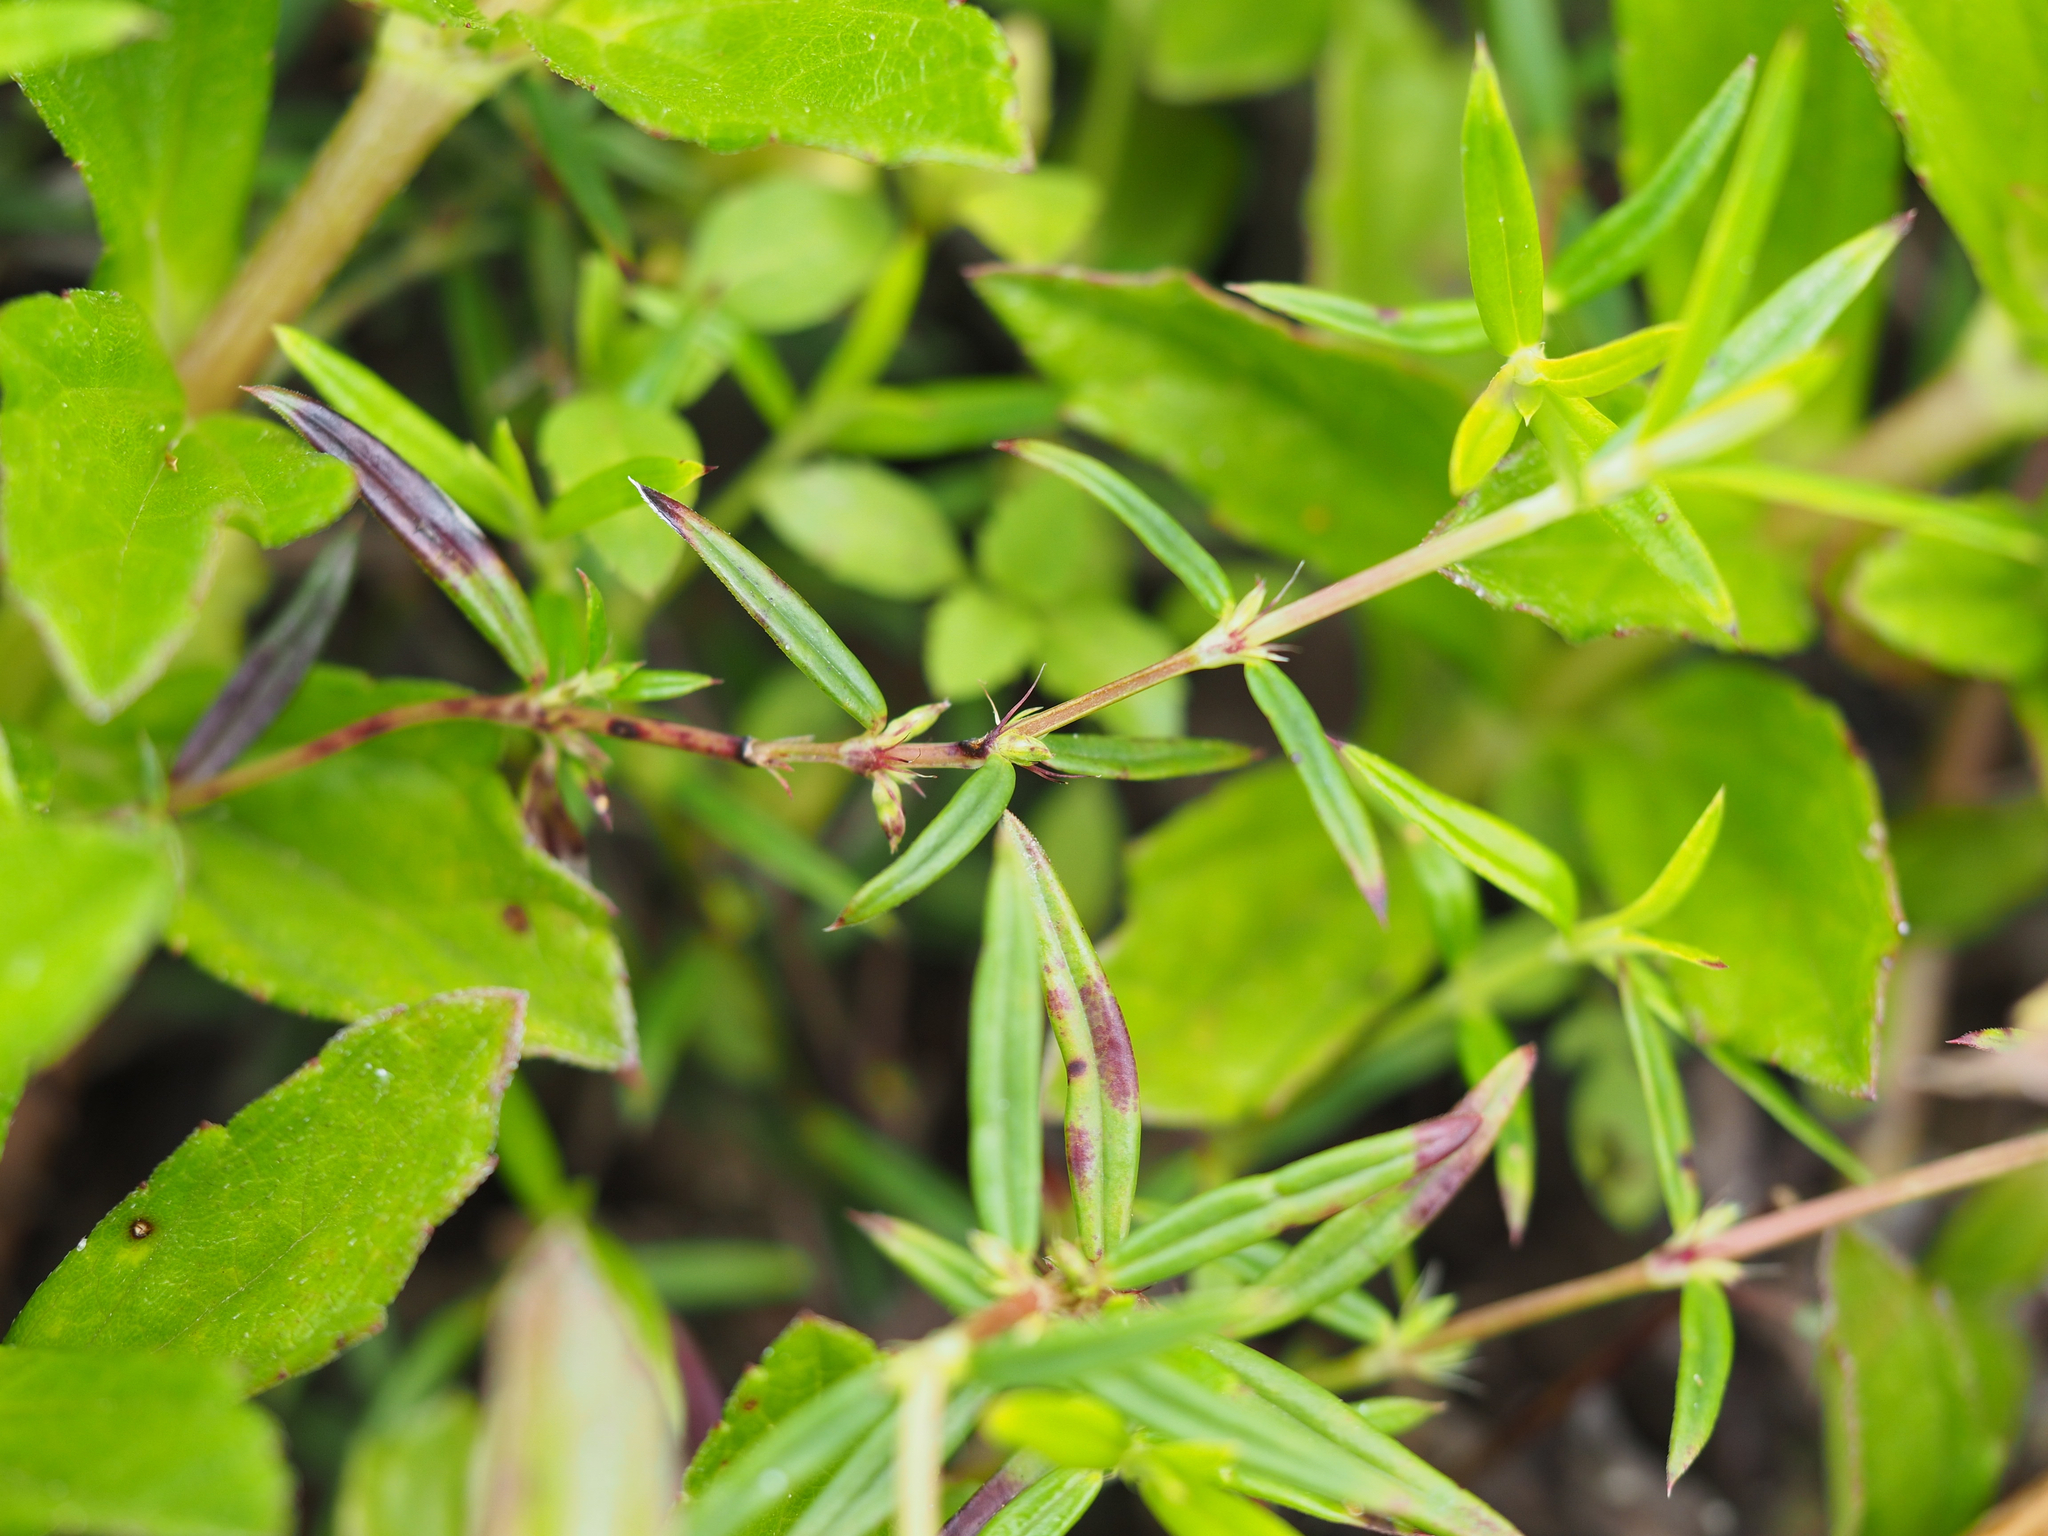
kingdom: Plantae
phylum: Tracheophyta
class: Magnoliopsida
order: Gentianales
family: Rubiaceae
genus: Scleromitrion
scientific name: Scleromitrion tenelliflorum
